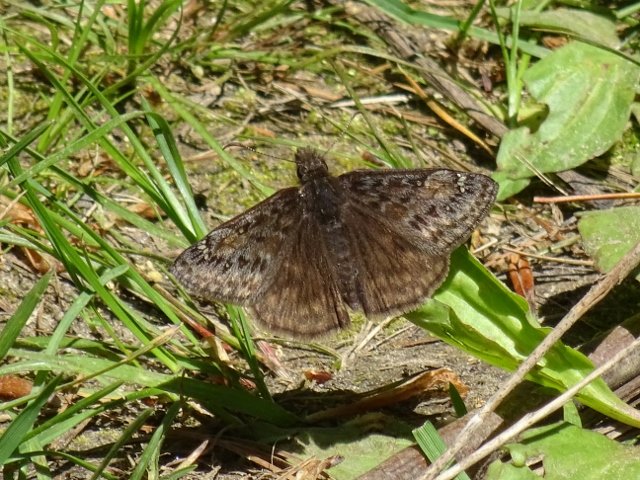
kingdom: Animalia
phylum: Arthropoda
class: Insecta
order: Lepidoptera
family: Hesperiidae
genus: Gesta
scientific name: Gesta
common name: Juvenal's Duskywing
